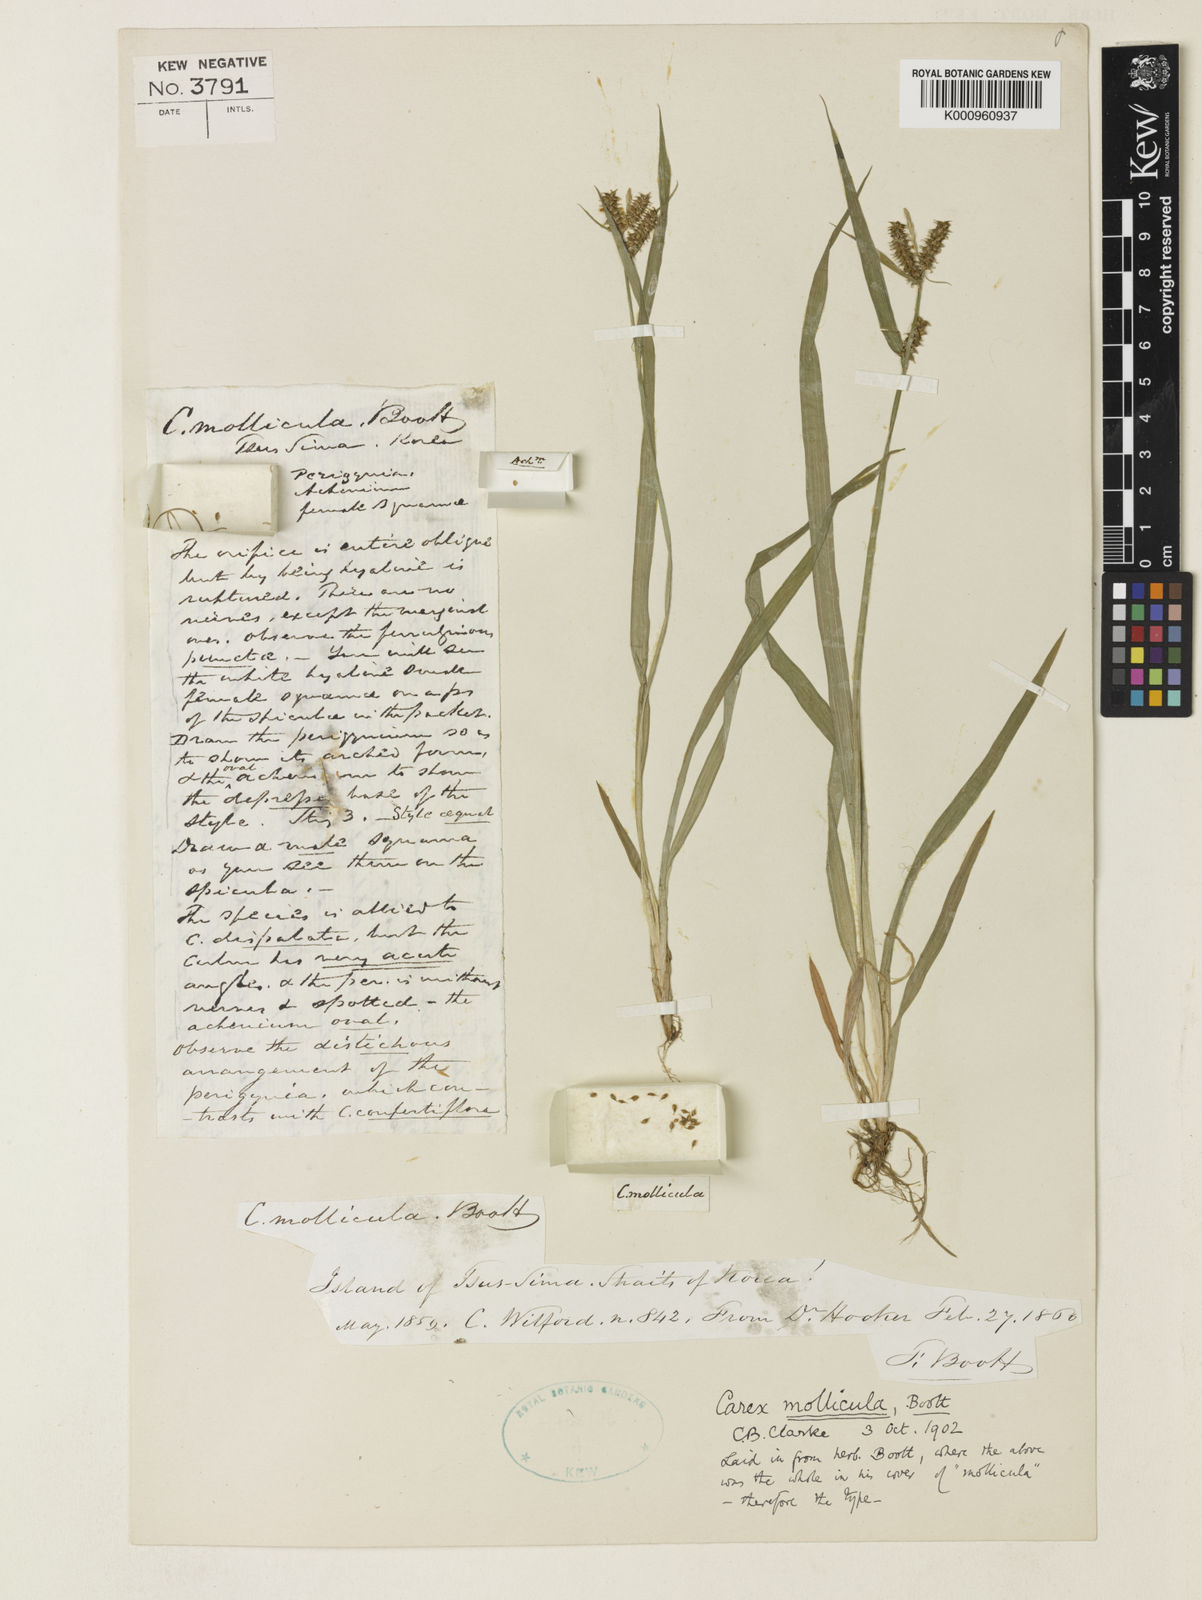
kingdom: Plantae
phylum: Tracheophyta
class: Liliopsida
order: Poales
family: Cyperaceae
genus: Carex
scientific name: Carex mollicula
